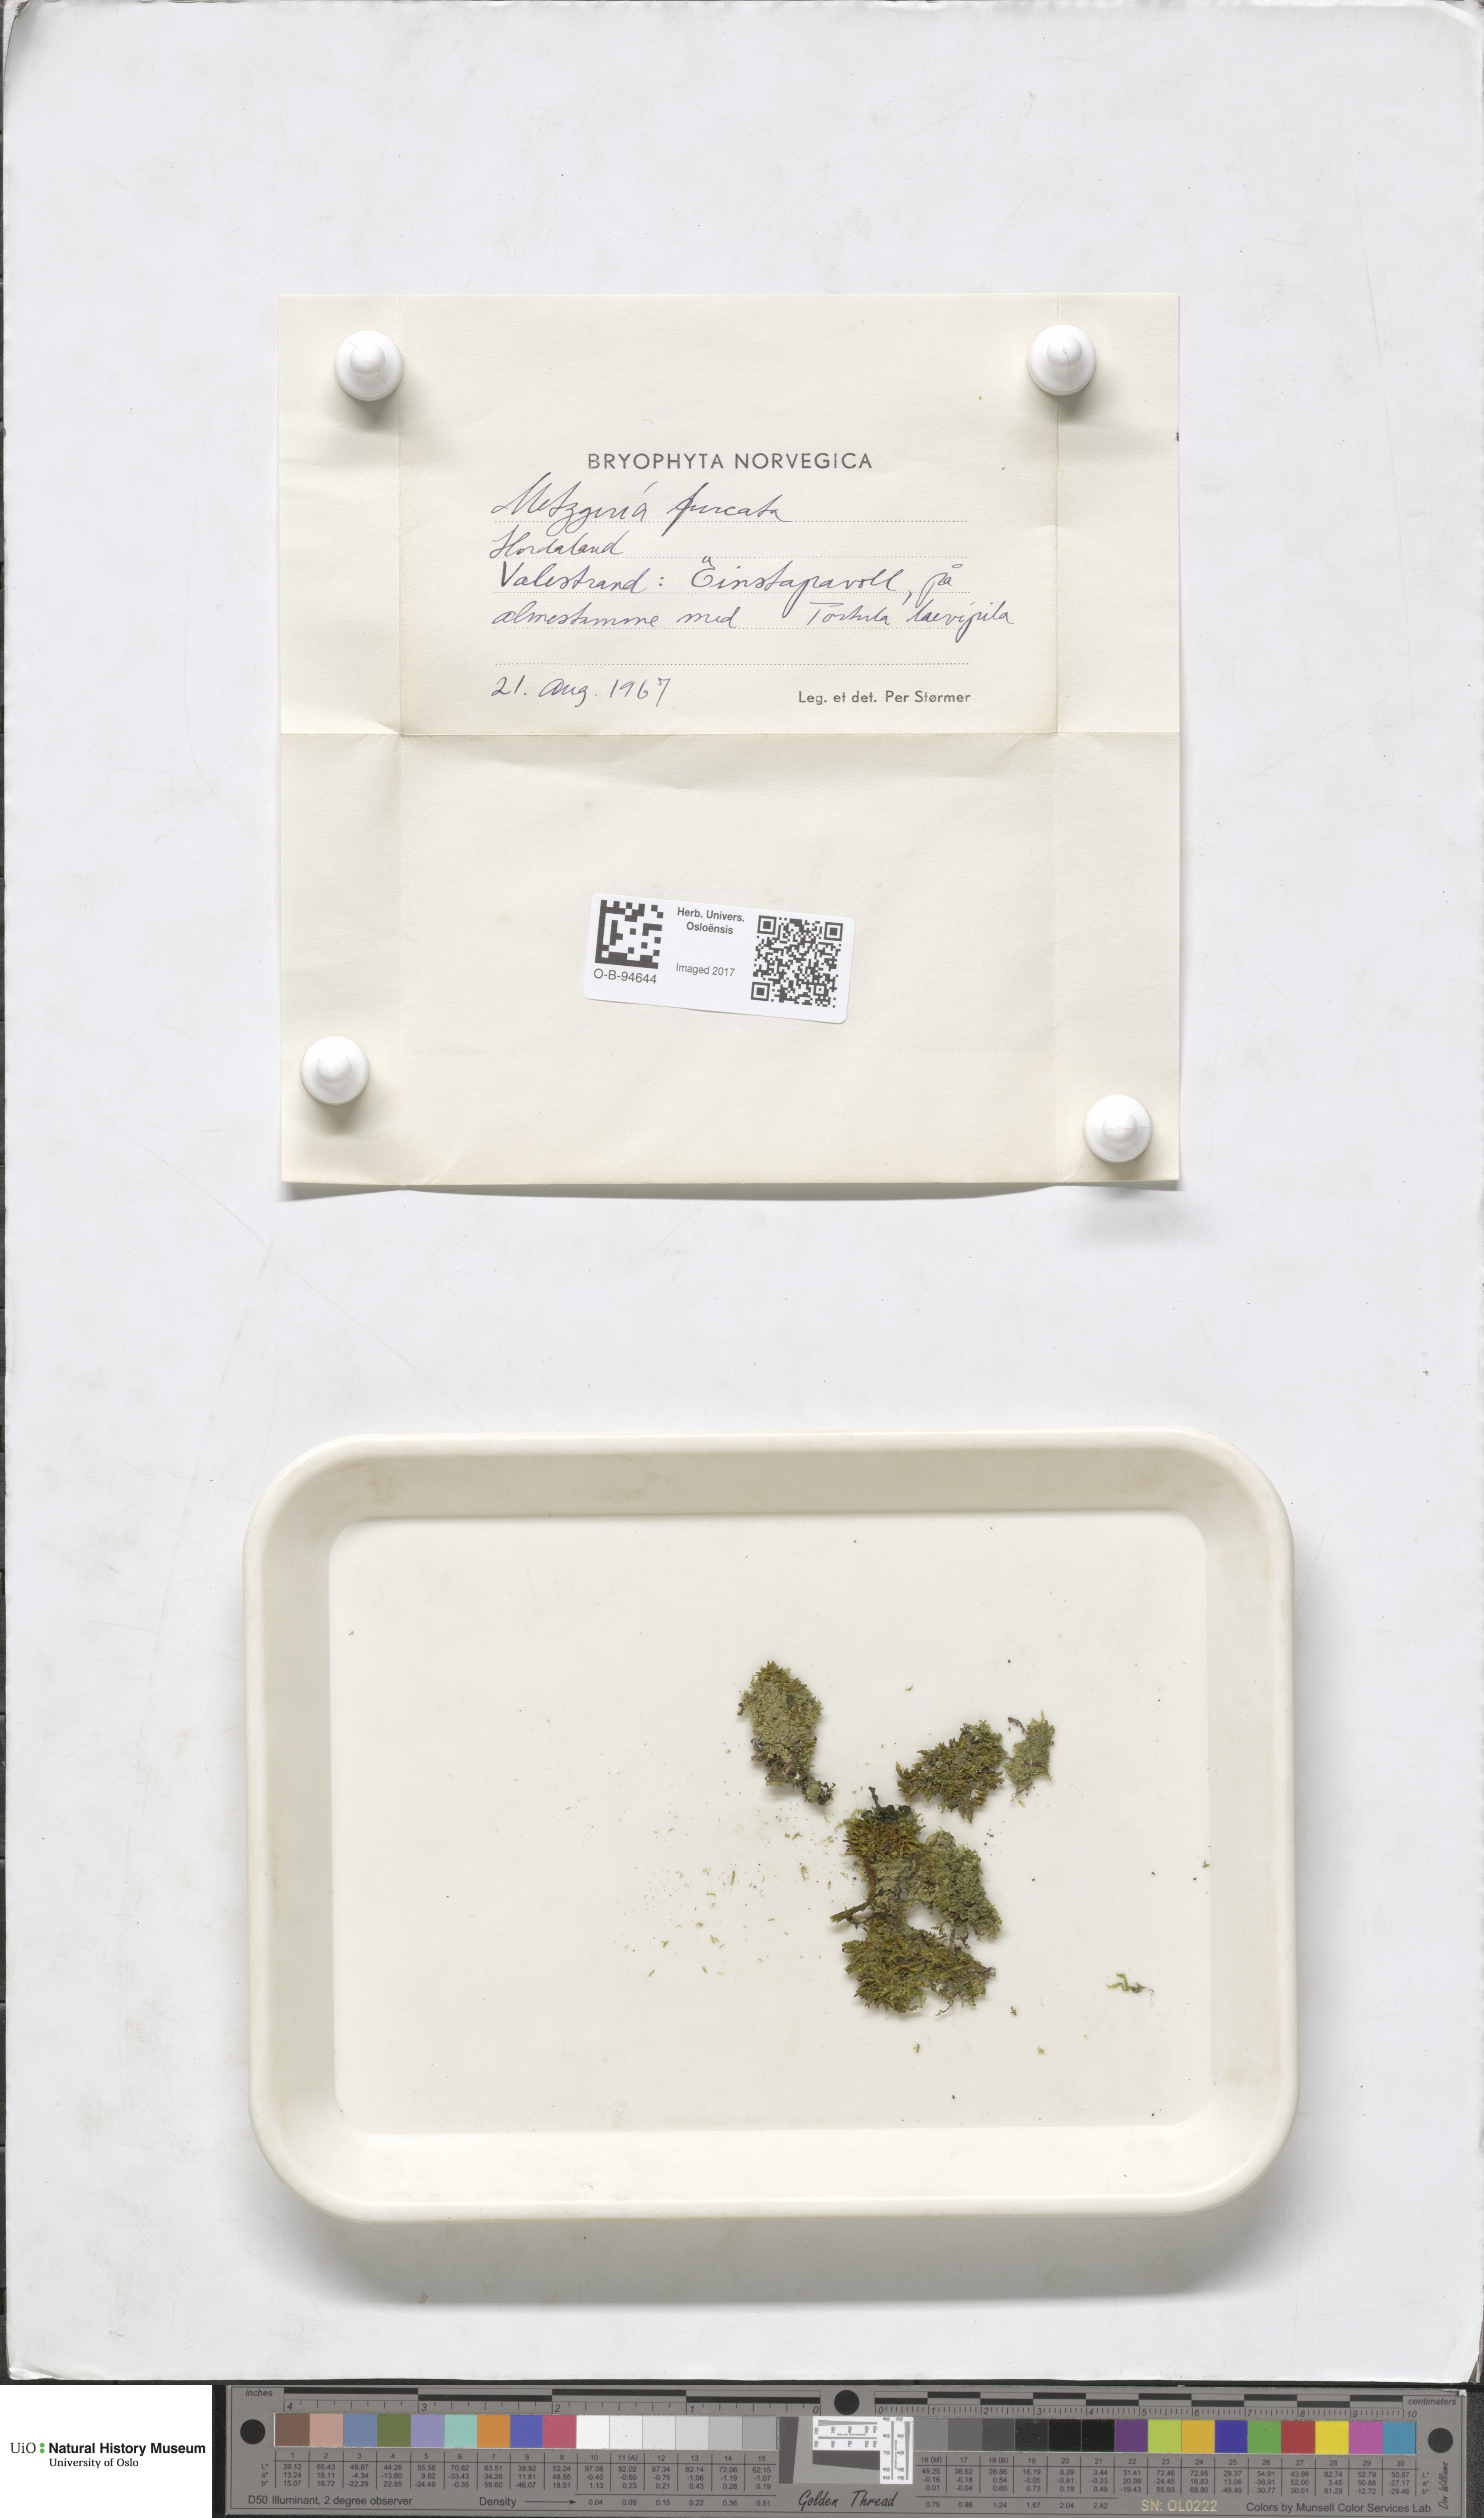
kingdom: Plantae
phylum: Marchantiophyta
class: Jungermanniopsida
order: Metzgeriales
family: Metzgeriaceae
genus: Metzgeria
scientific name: Metzgeria furcata
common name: Forked veilwort
